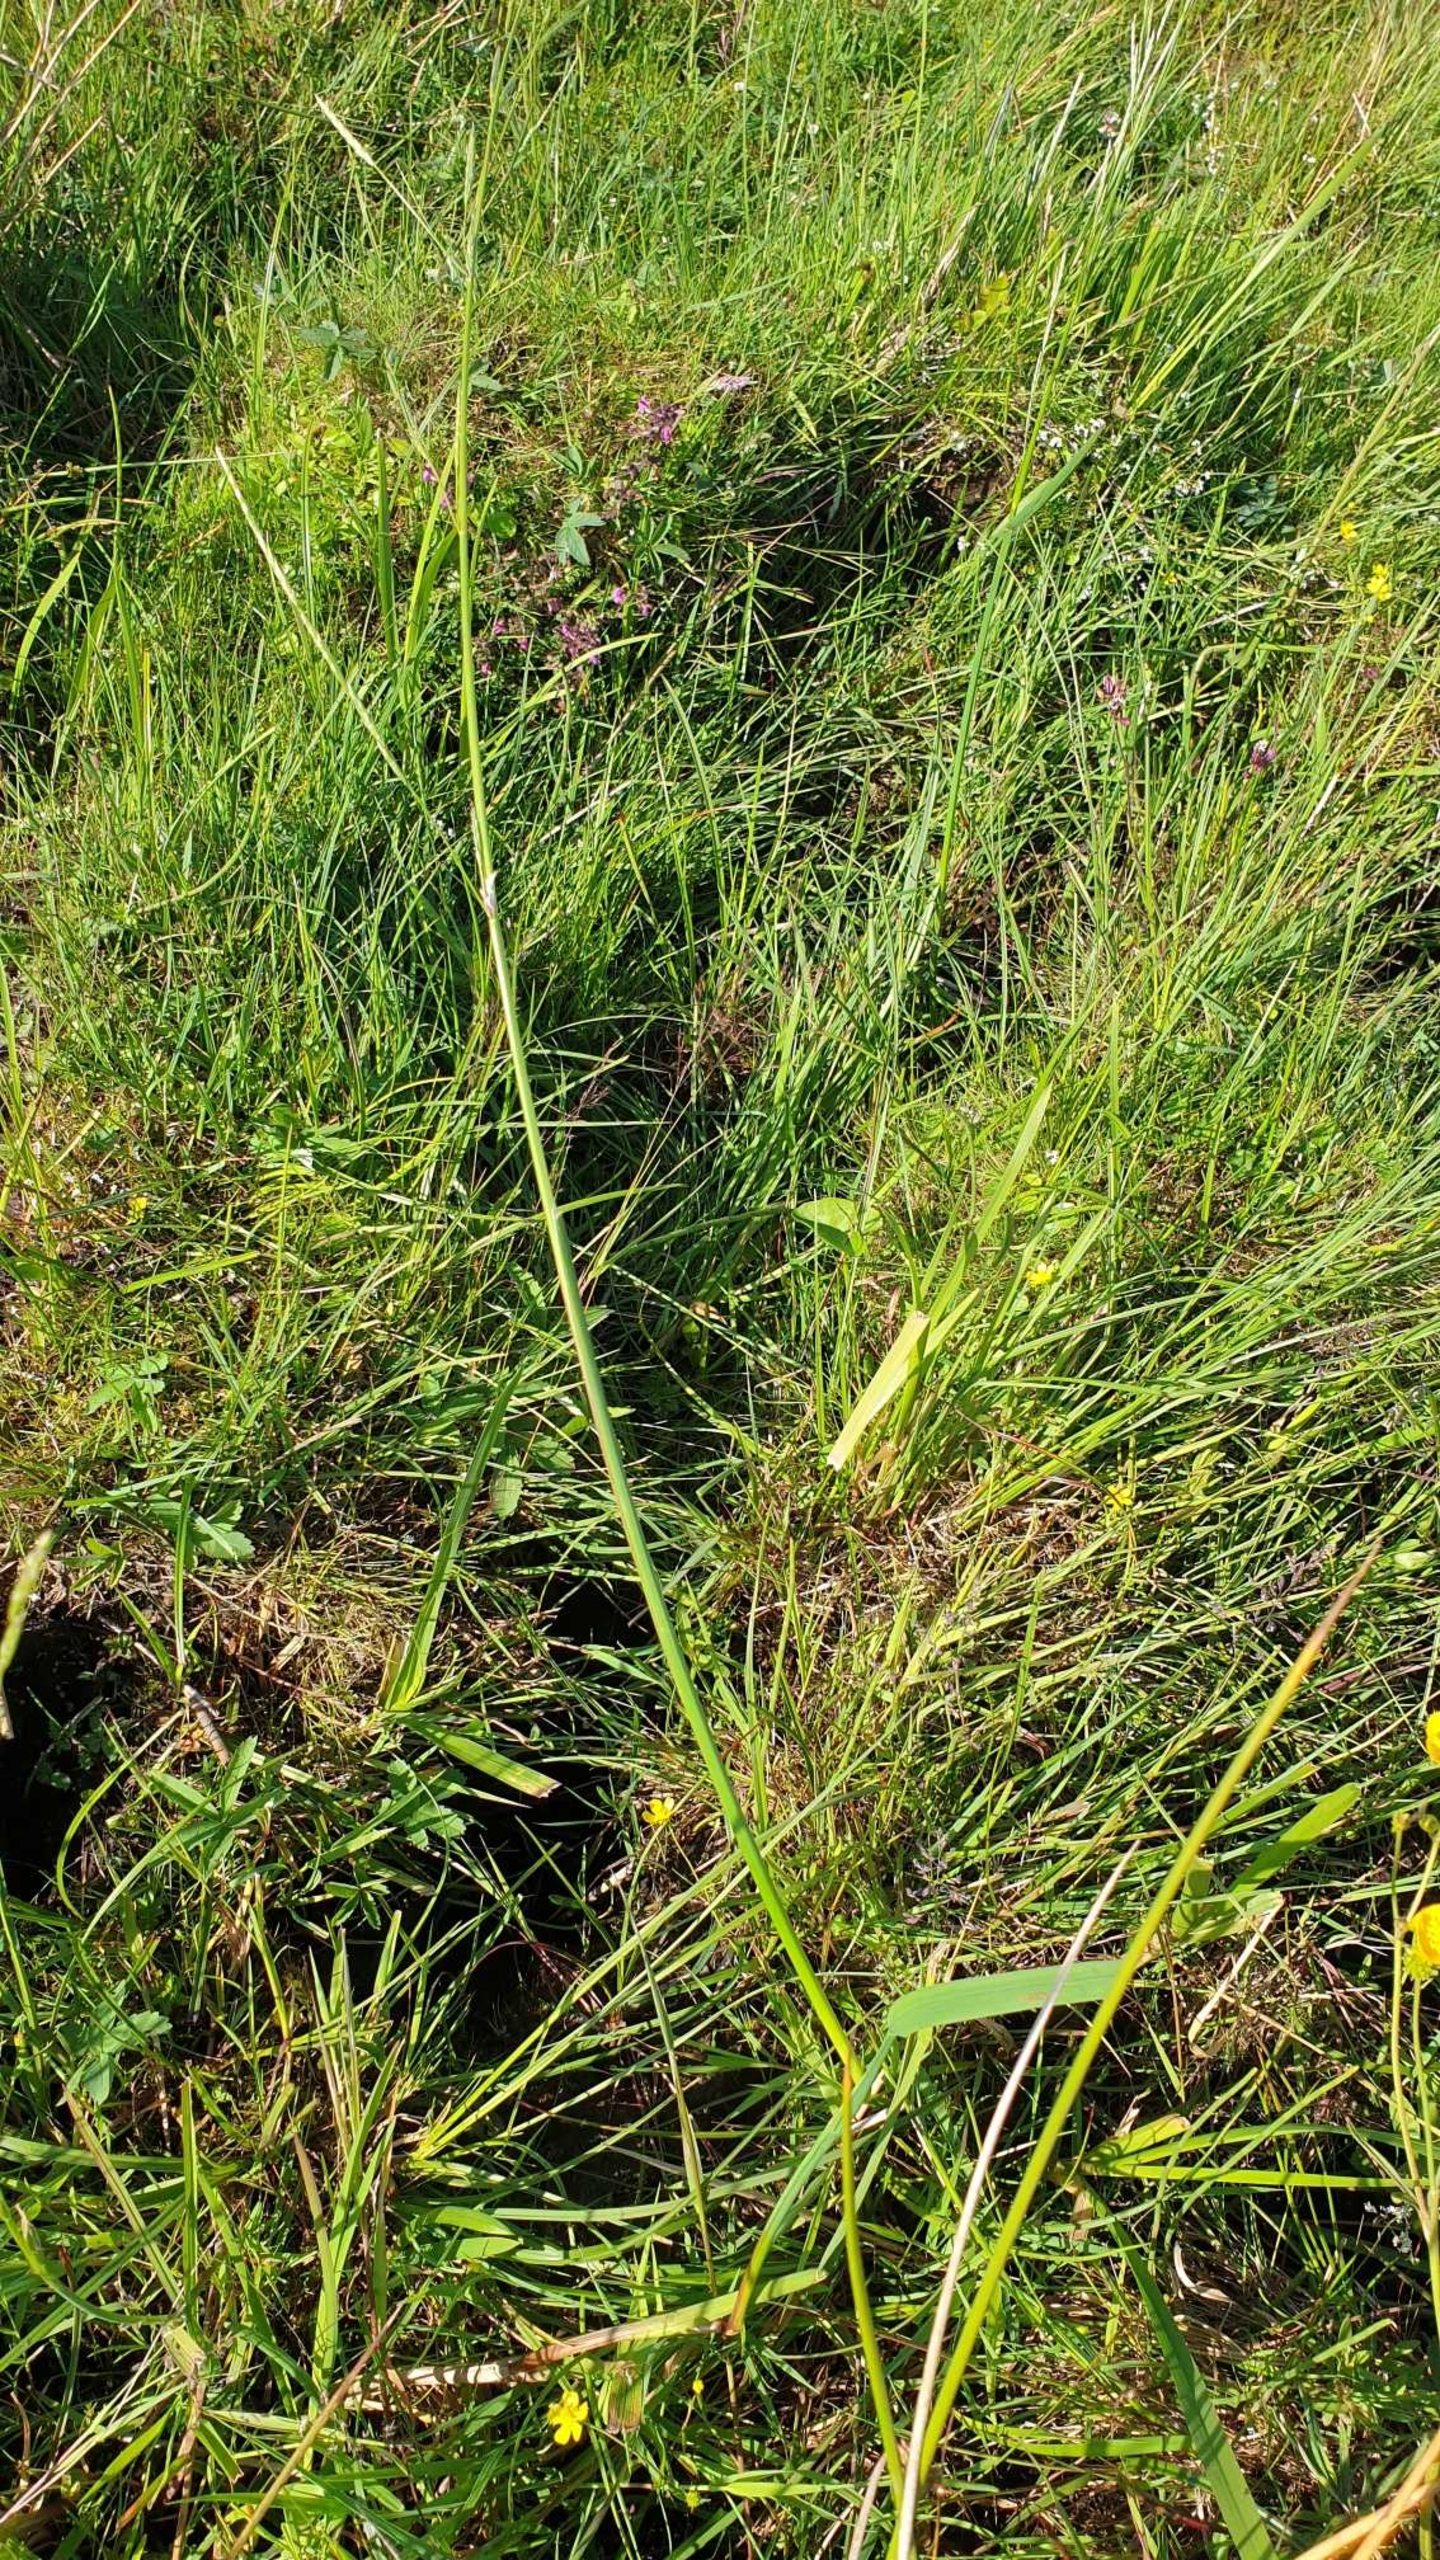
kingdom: Plantae
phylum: Tracheophyta
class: Liliopsida
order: Poales
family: Poaceae
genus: Glyceria
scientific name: Glyceria
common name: Sødgræsslægten
